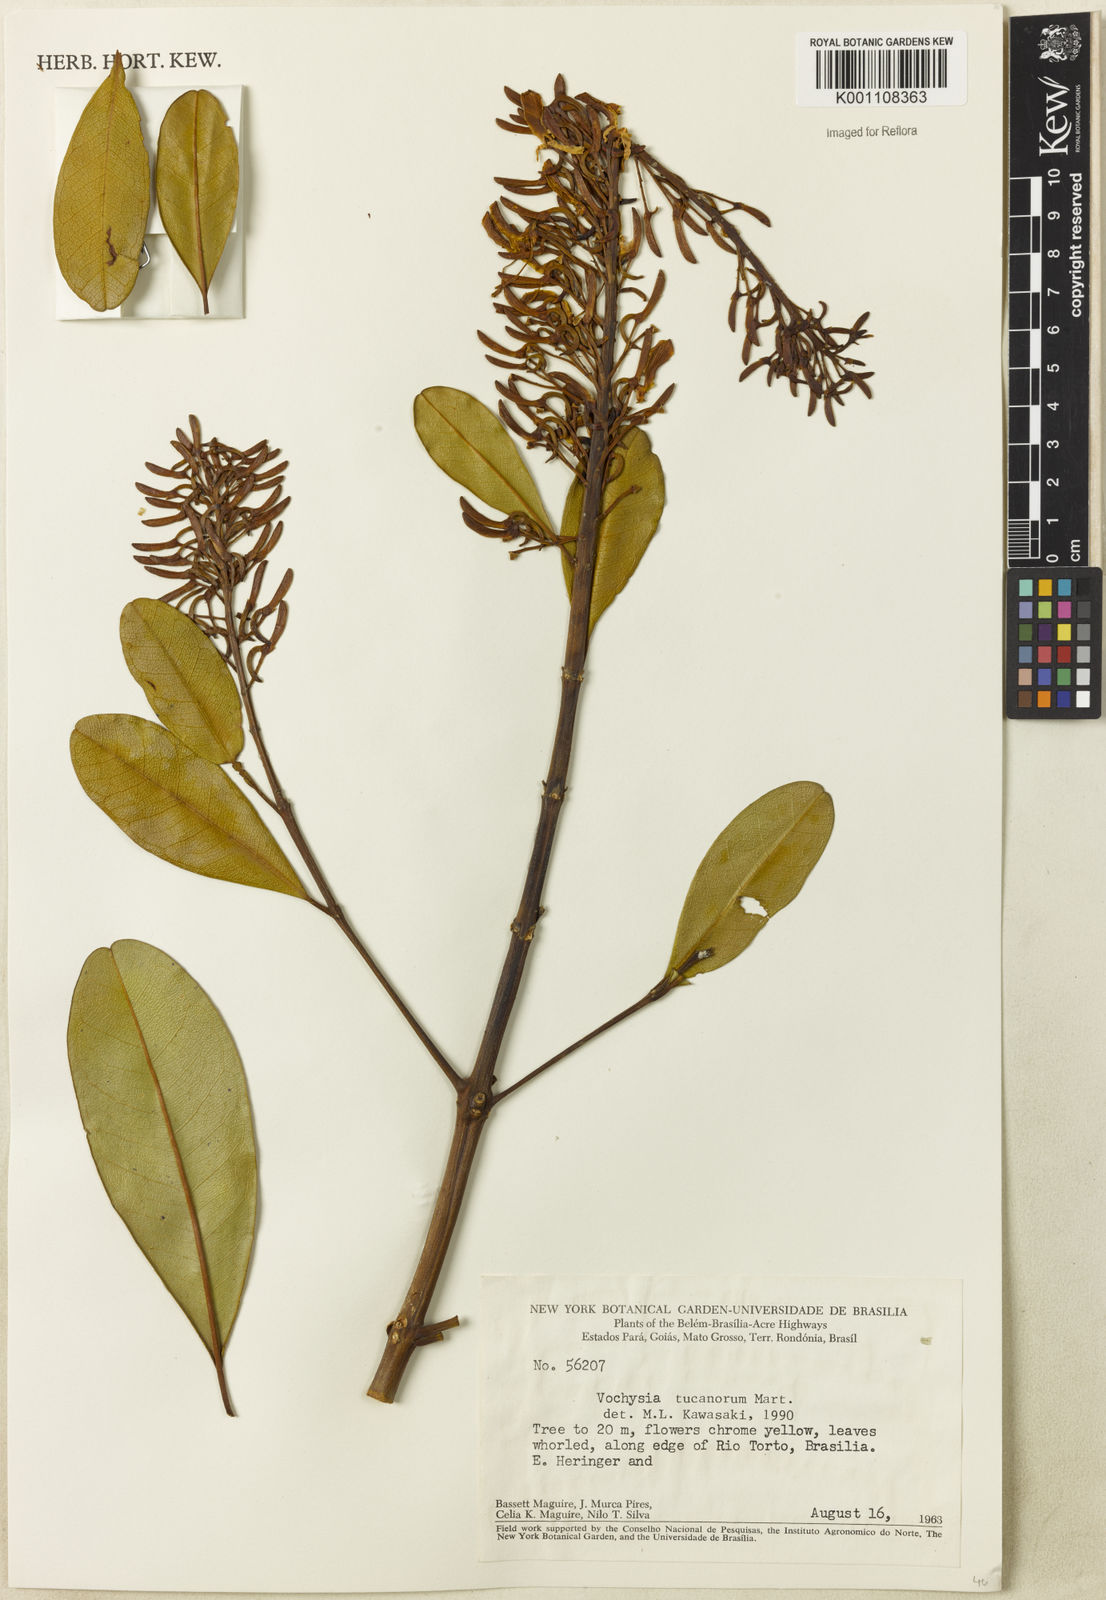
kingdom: Plantae
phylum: Tracheophyta
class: Magnoliopsida
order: Myrtales
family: Vochysiaceae
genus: Vochysia
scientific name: Vochysia tucanorum
